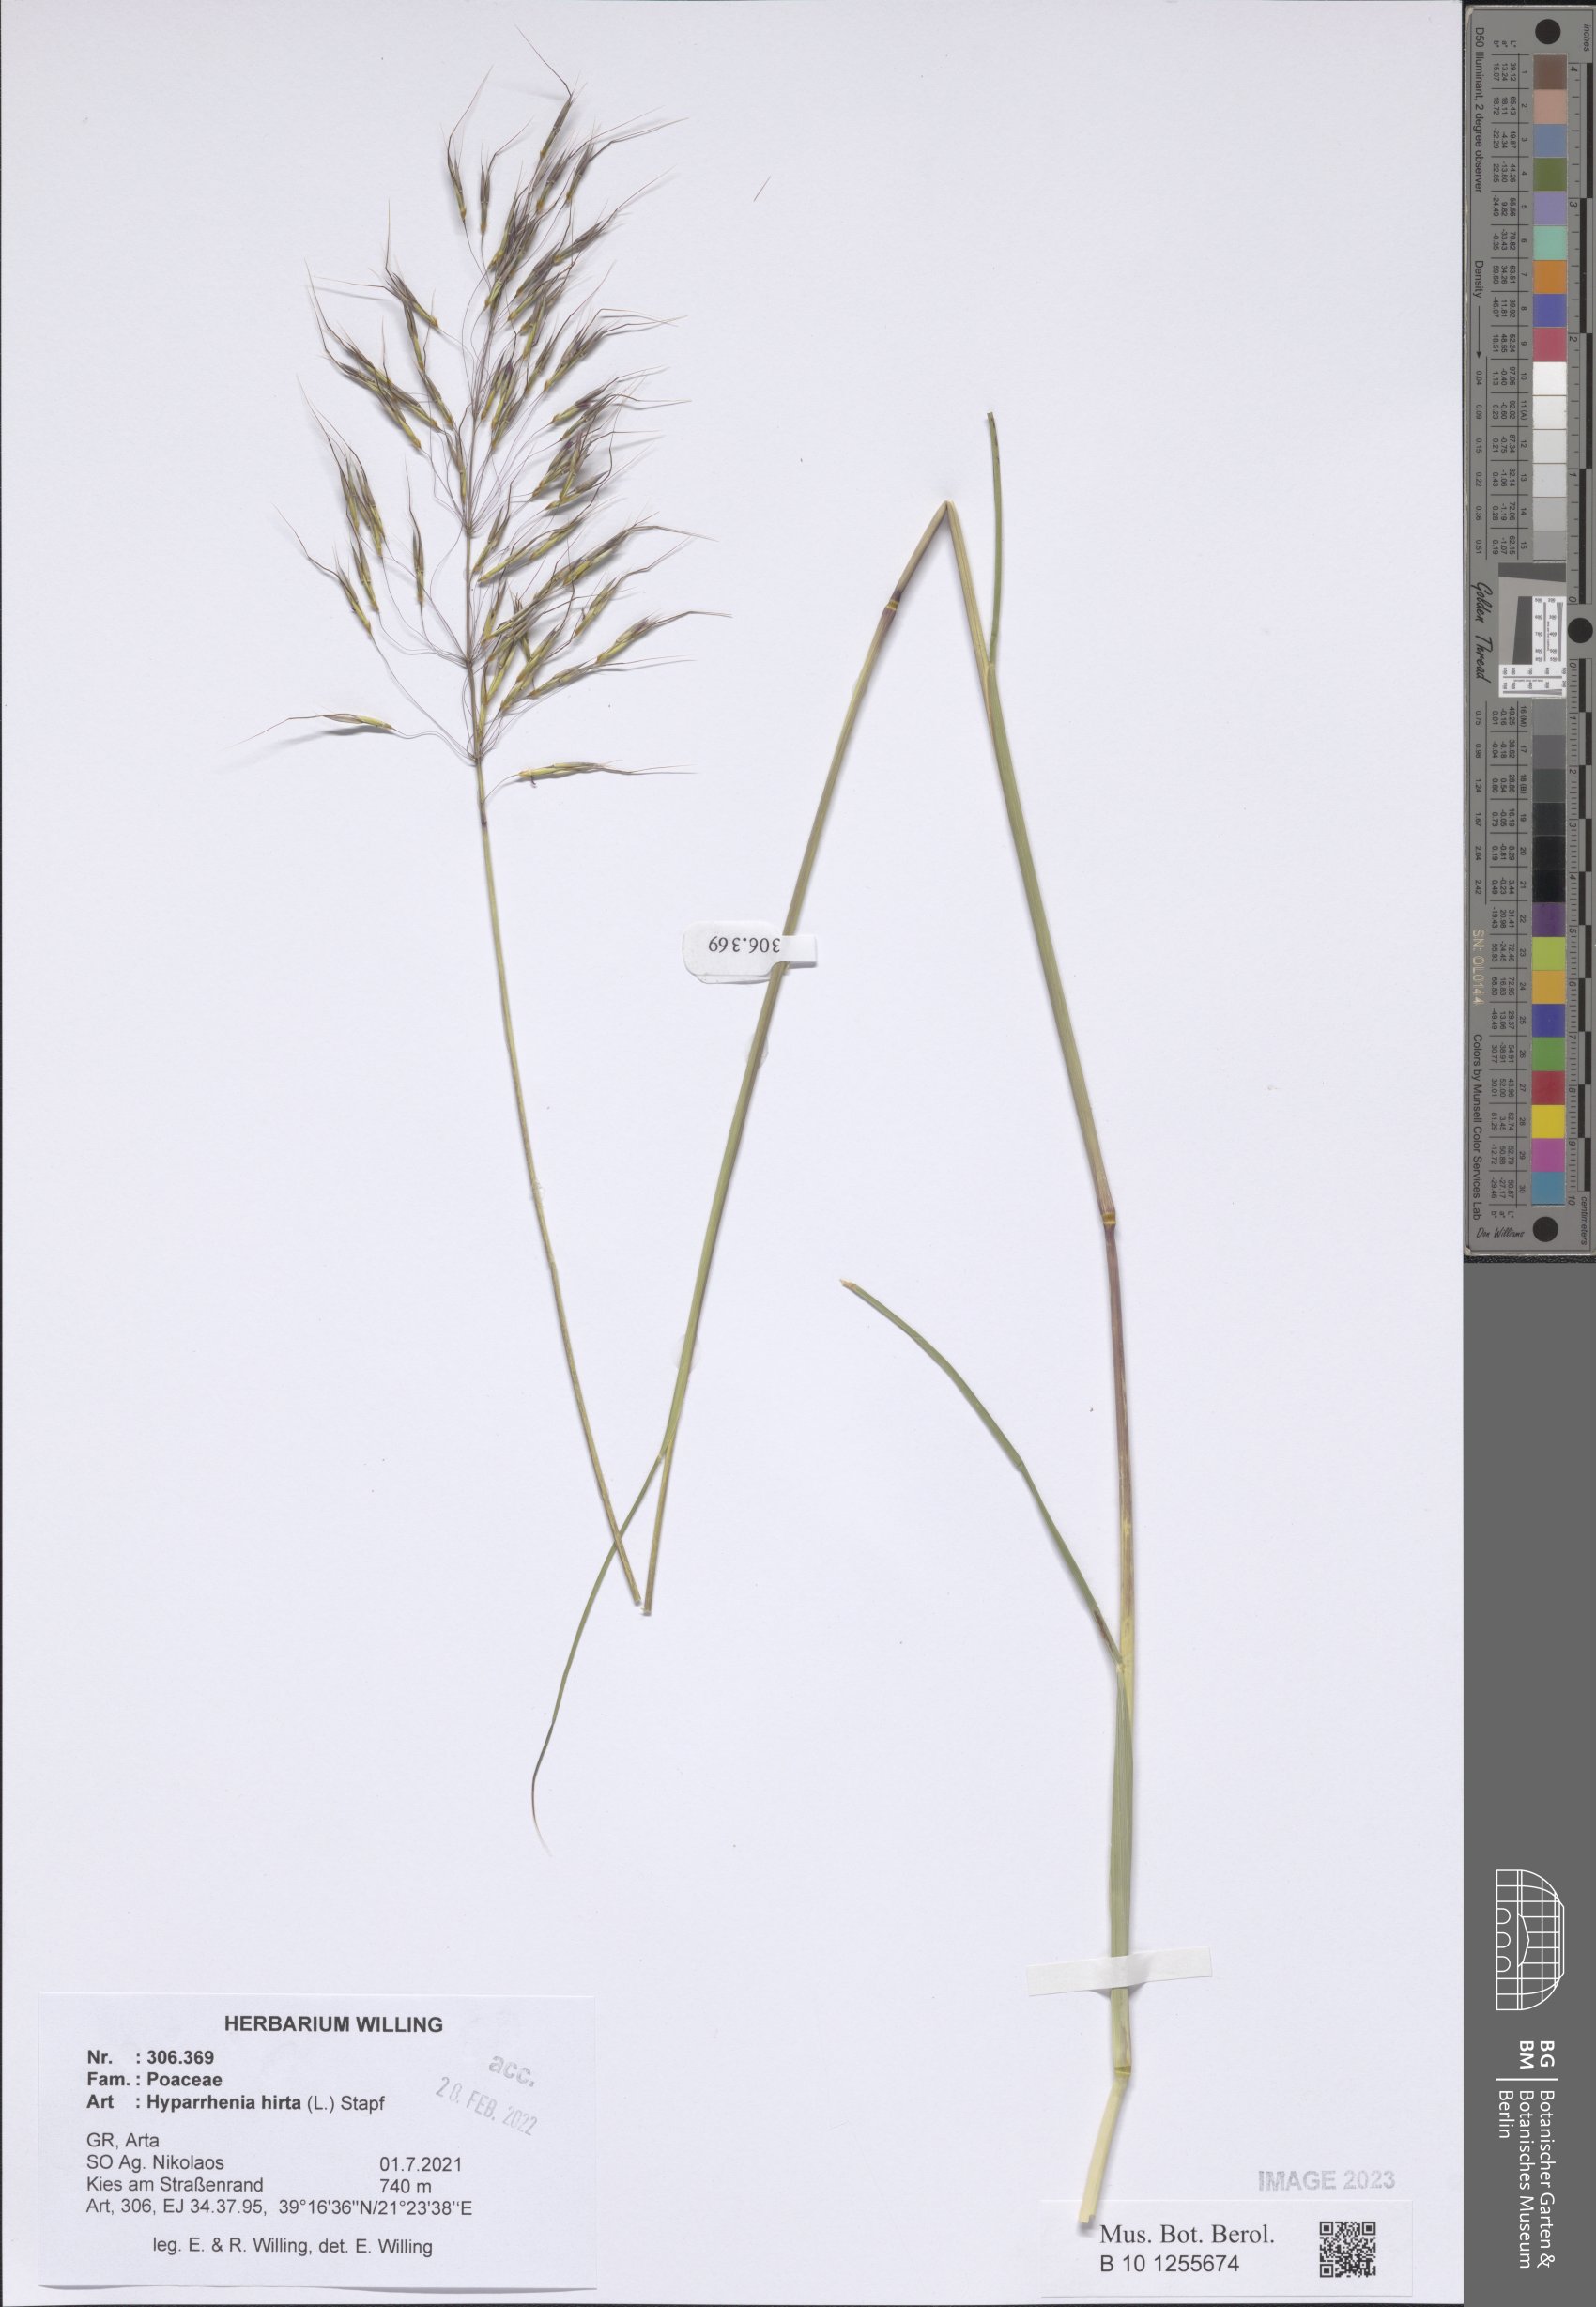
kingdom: Plantae
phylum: Tracheophyta
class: Liliopsida
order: Poales
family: Poaceae
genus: Hyparrhenia
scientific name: Hyparrhenia hirta
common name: Thatching grass
